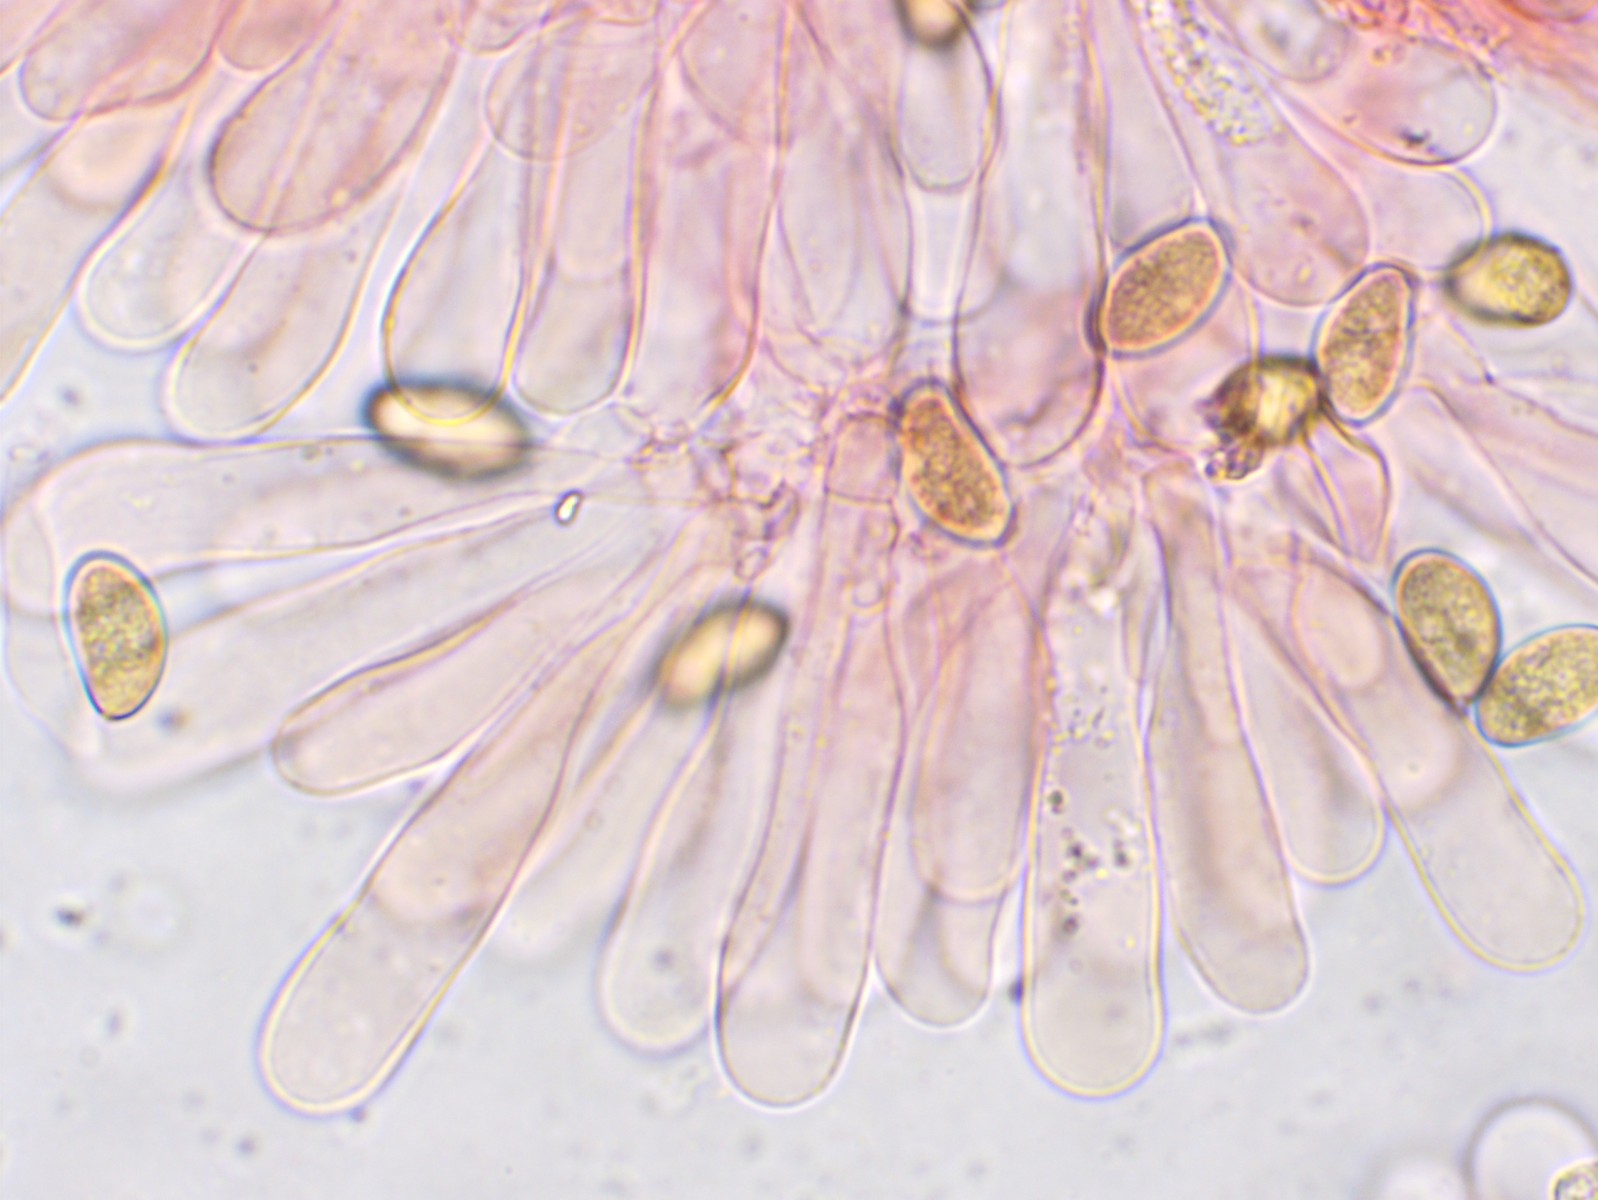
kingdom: Fungi
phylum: Basidiomycota
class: Agaricomycetes
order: Agaricales
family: Inocybaceae
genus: Inosperma
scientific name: Inosperma bongardii
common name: Bongards trævlhat
